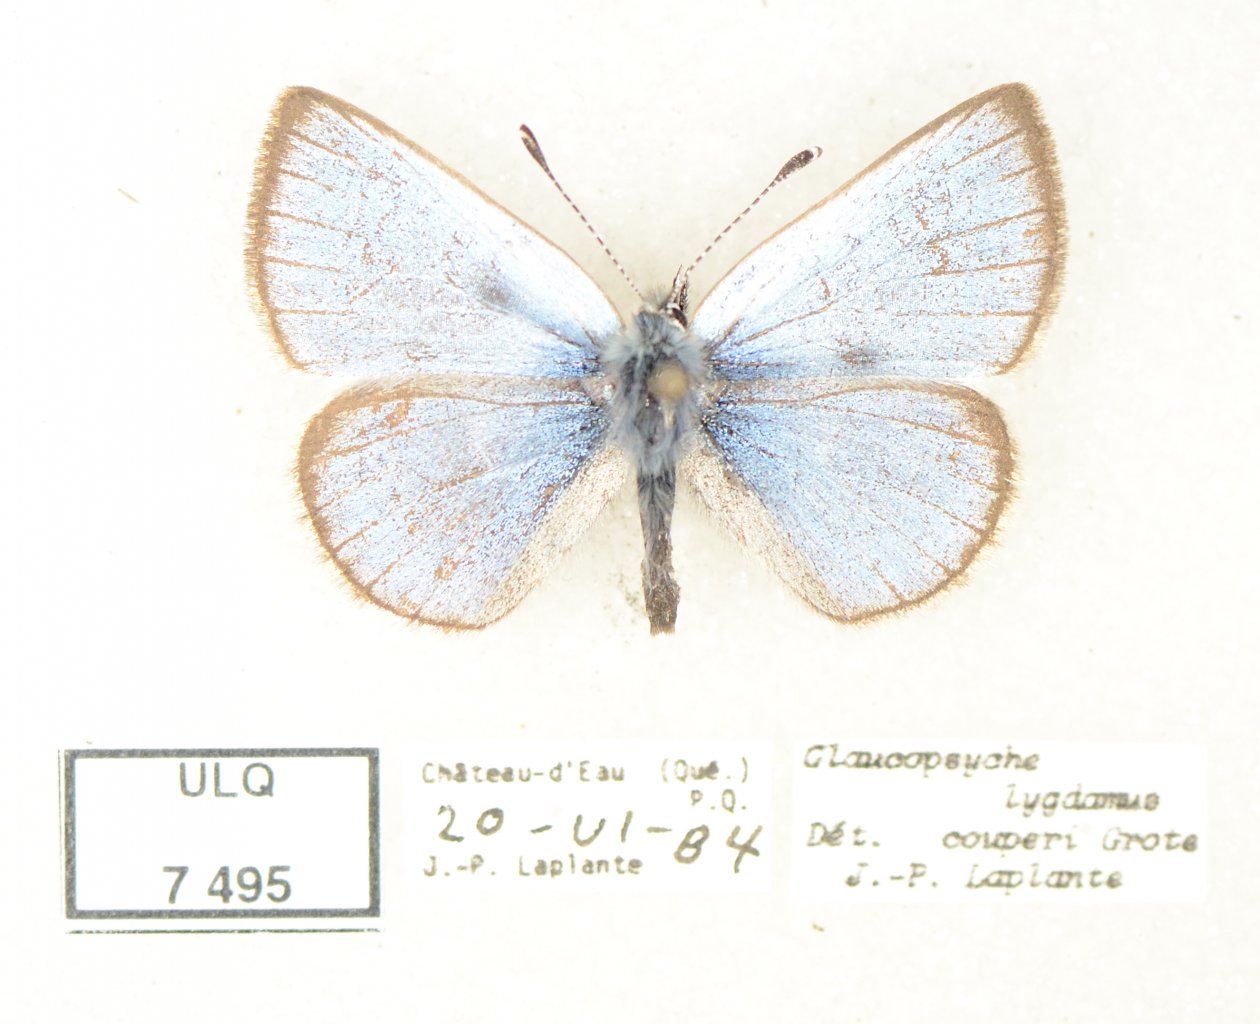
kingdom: Animalia
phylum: Arthropoda
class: Insecta
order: Lepidoptera
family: Lycaenidae
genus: Glaucopsyche
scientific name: Glaucopsyche lygdamus
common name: Silvery Blue
